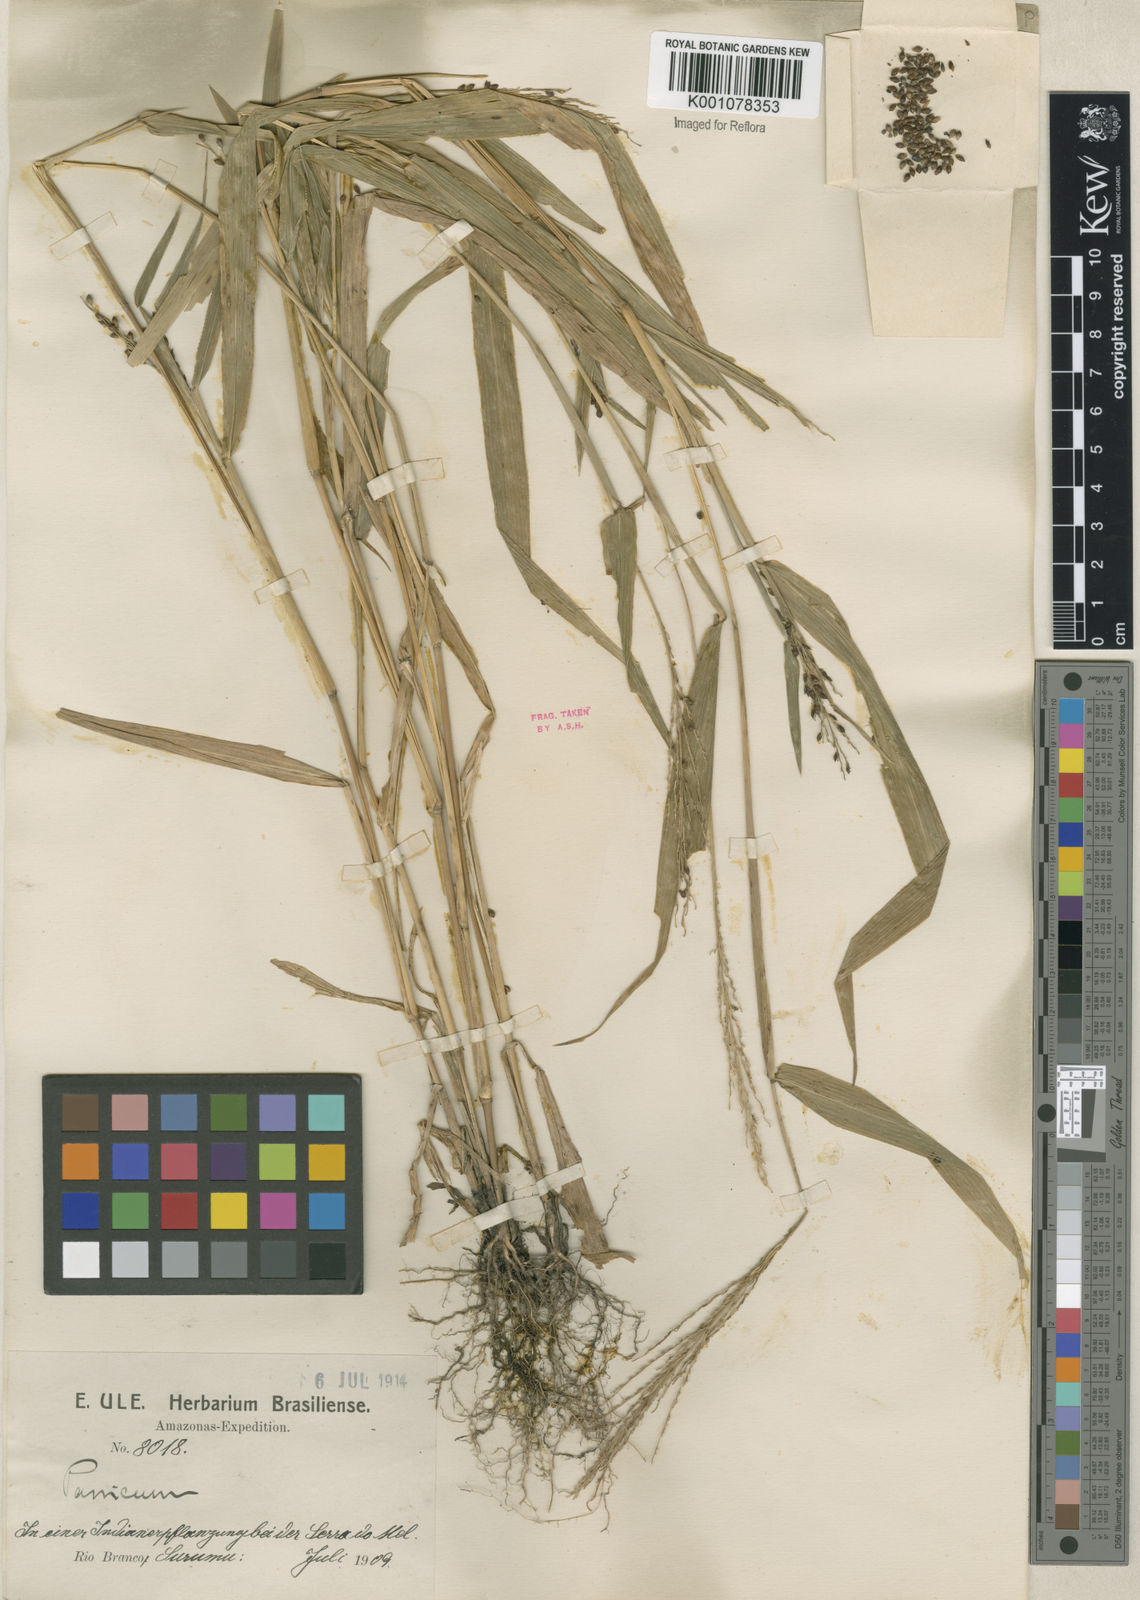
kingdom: Plantae
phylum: Tracheophyta
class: Liliopsida
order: Poales
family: Poaceae
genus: Urochloa
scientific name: Urochloa fusca
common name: Browntop signal grass
